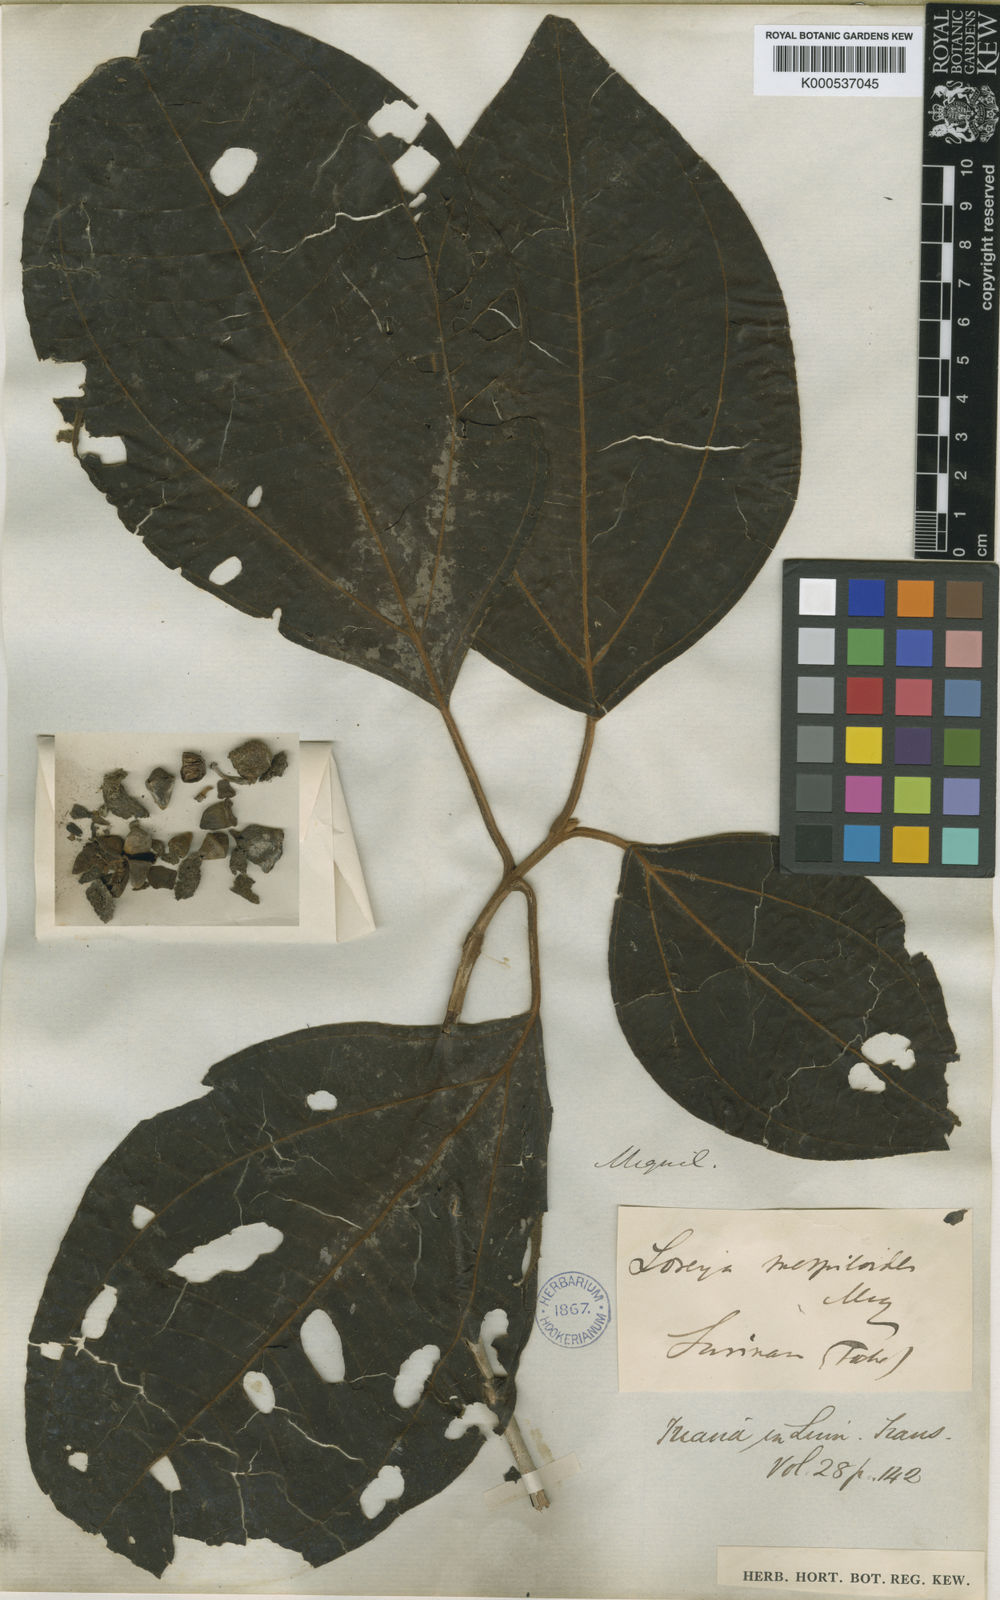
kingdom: Plantae
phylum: Tracheophyta
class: Magnoliopsida
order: Myrtales
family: Melastomataceae
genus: Bellucia
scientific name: Bellucia mespiloides
